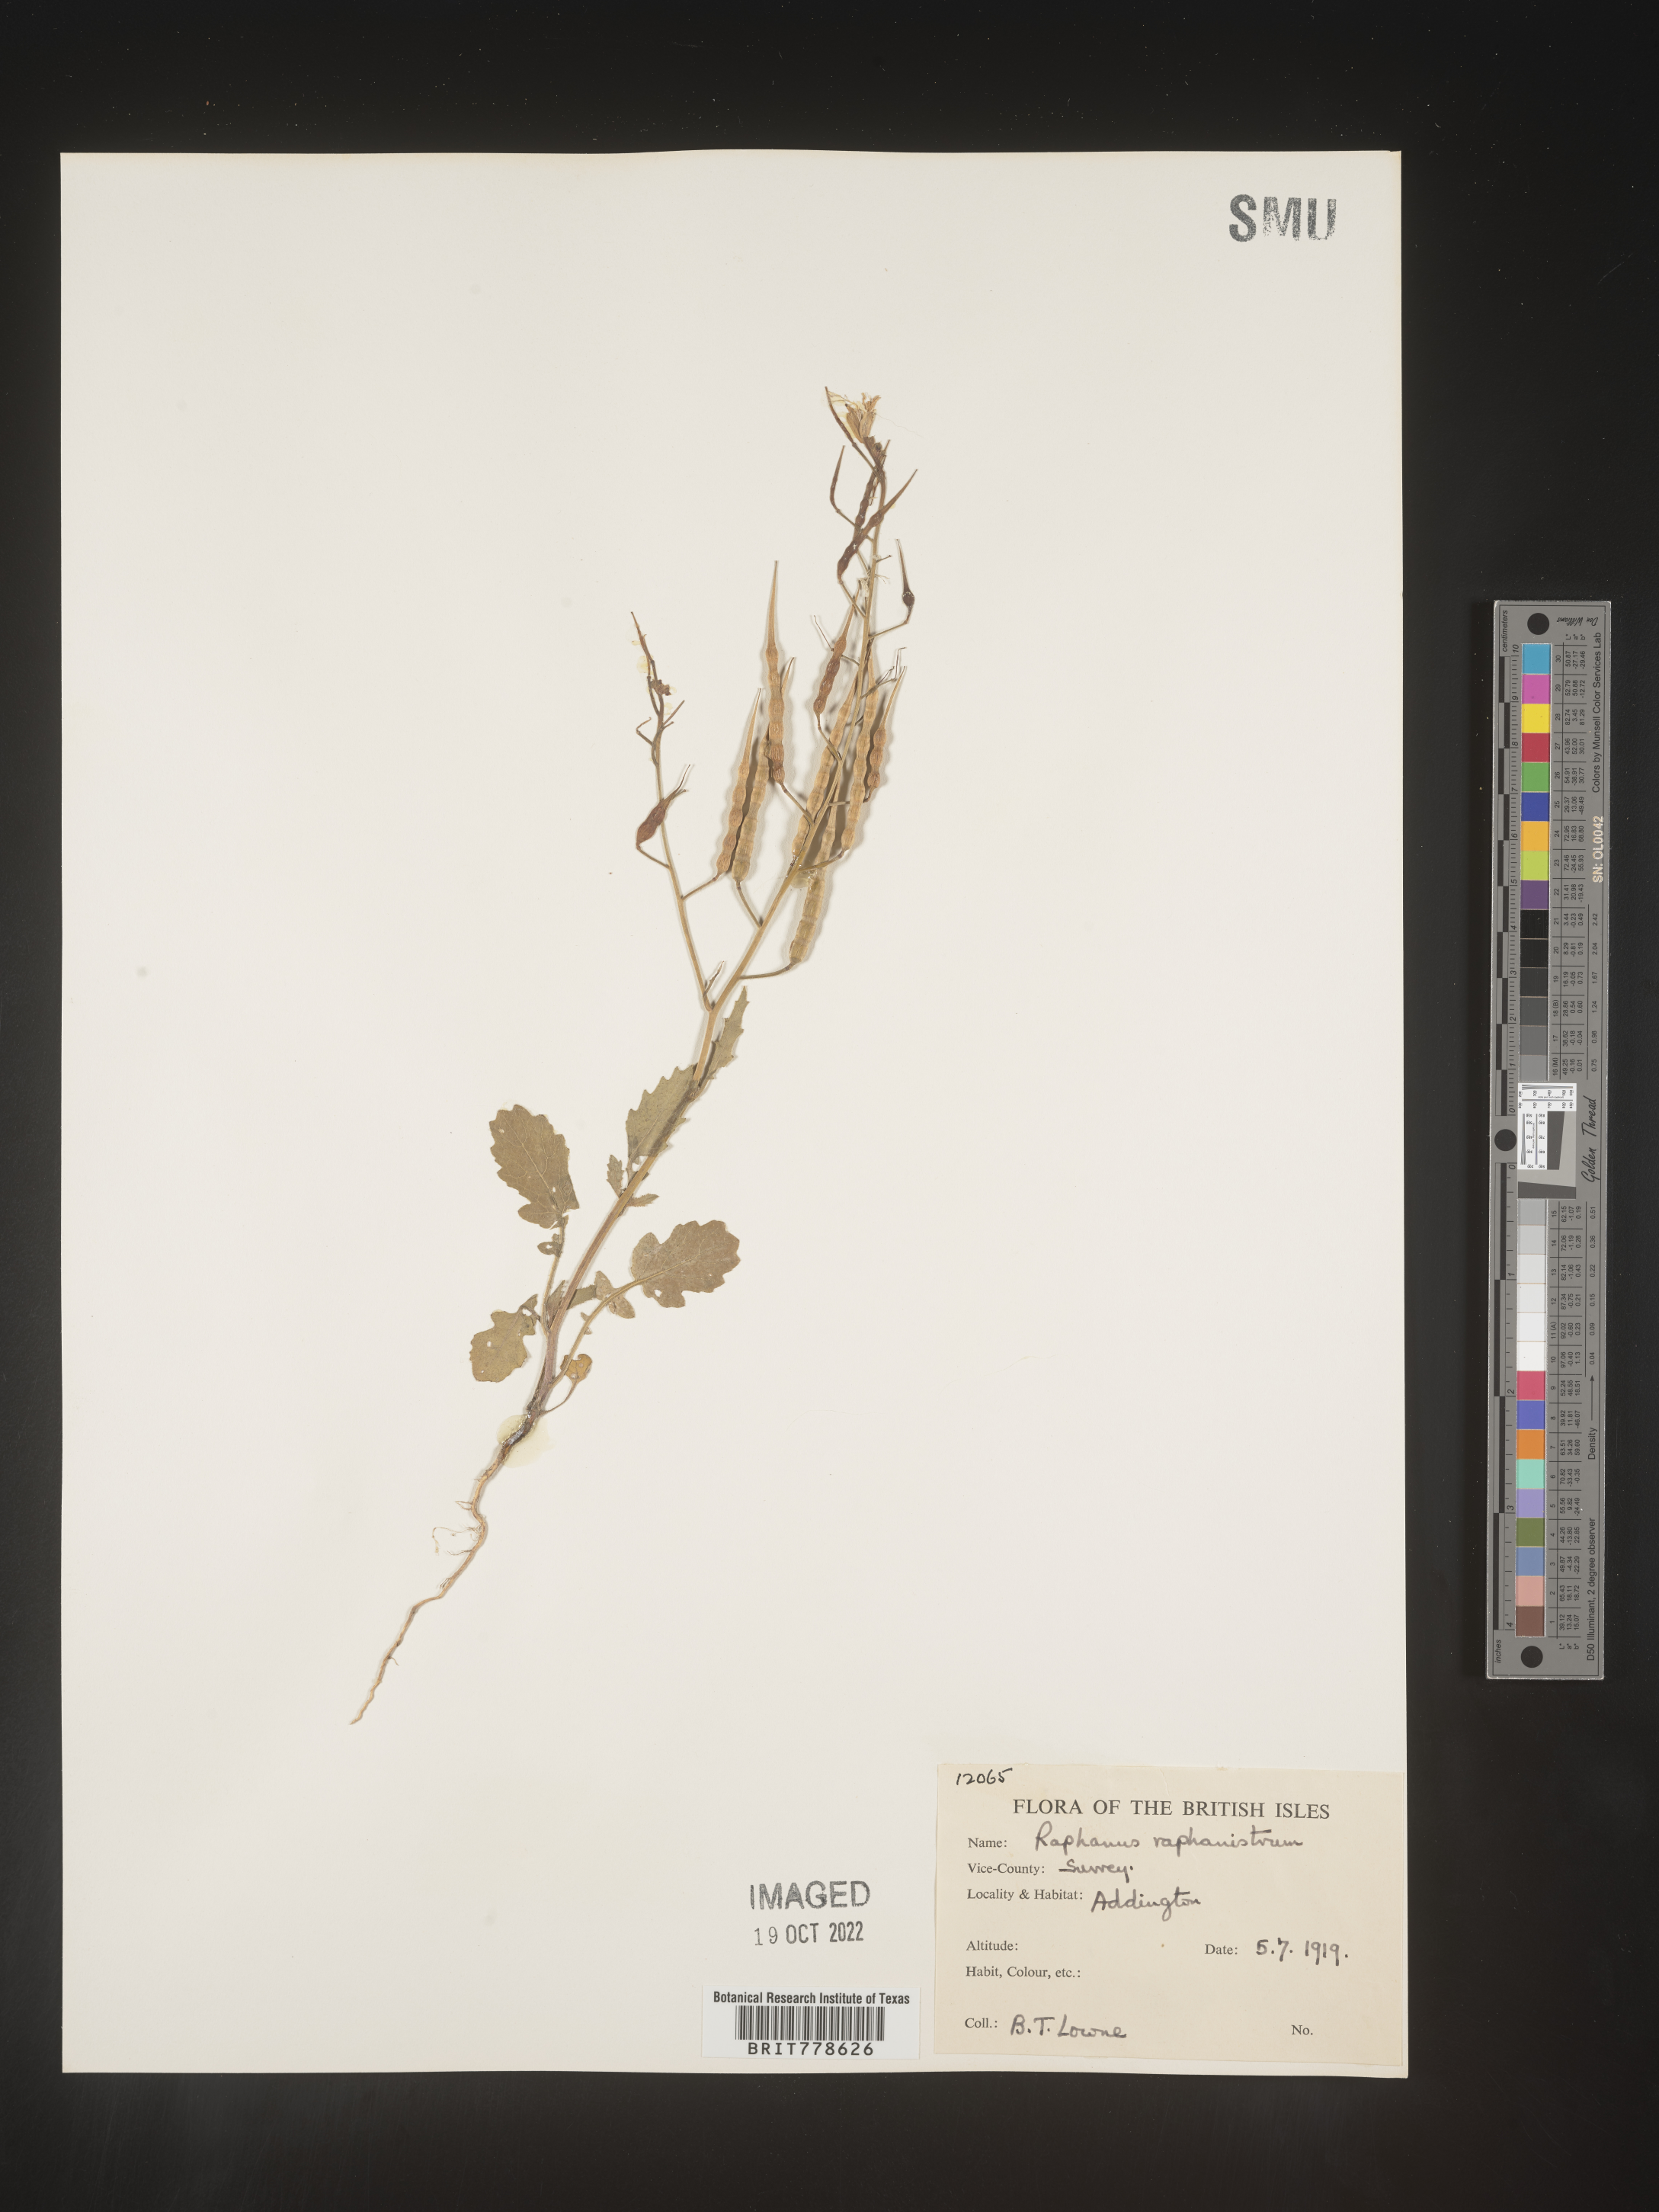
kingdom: Plantae
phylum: Tracheophyta
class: Magnoliopsida
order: Brassicales
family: Brassicaceae
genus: Raphanus
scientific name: Raphanus raphanistrum
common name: Wild radish
